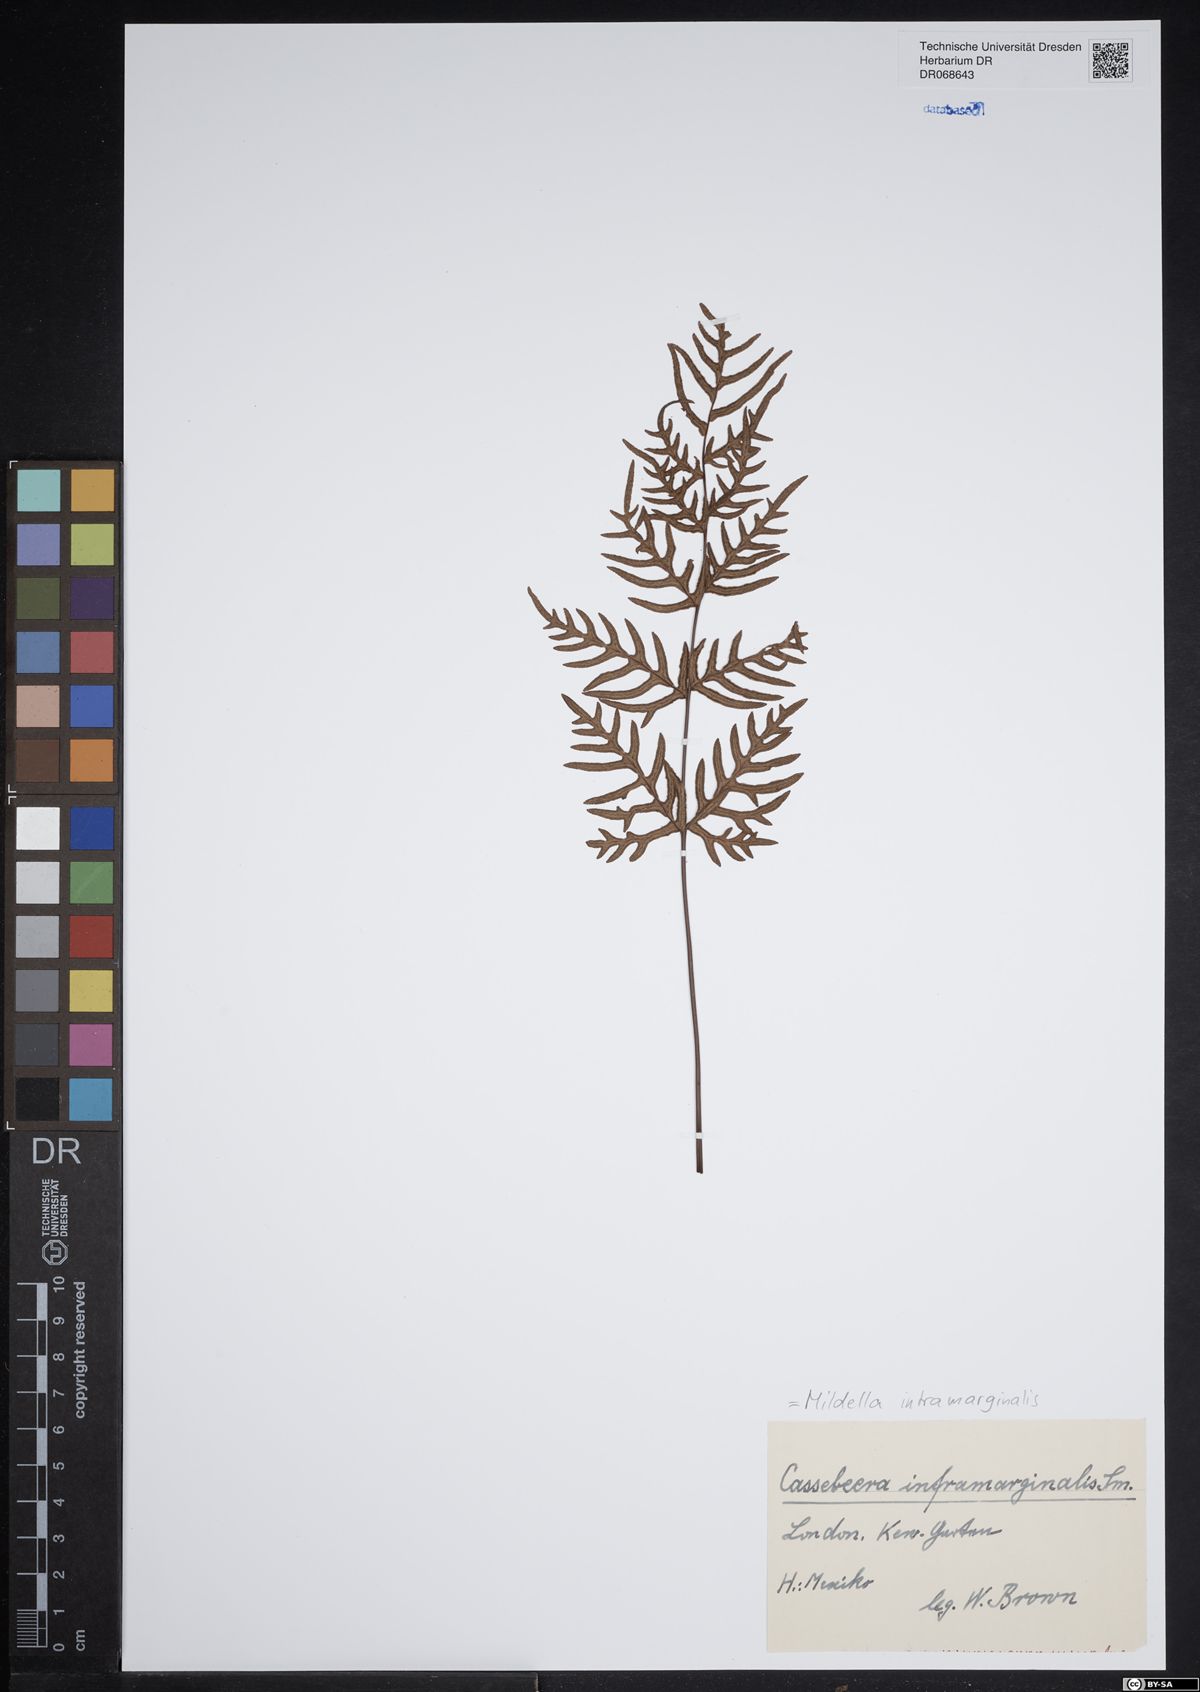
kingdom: Plantae
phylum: Tracheophyta
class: Polypodiopsida
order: Polypodiales
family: Pteridaceae
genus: Mildella
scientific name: Mildella intramarginalis
